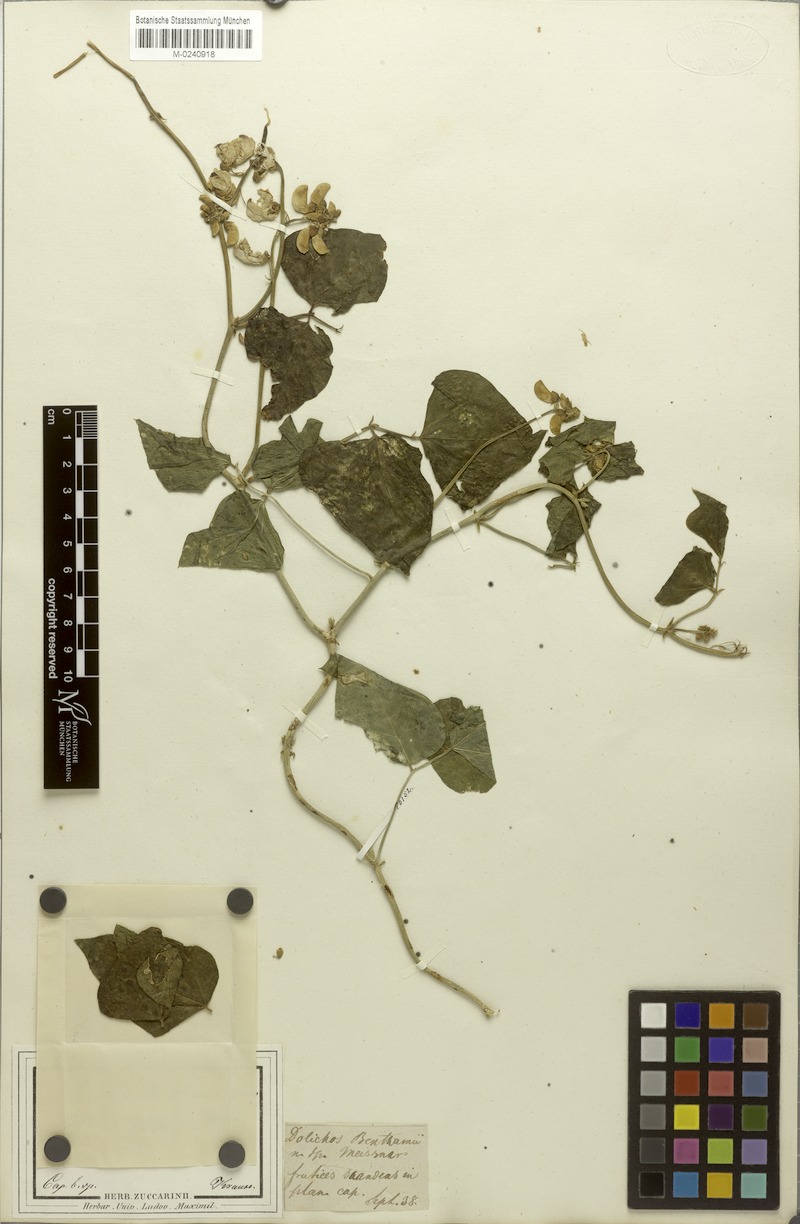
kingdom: Plantae
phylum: Tracheophyta
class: Magnoliopsida
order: Fabales
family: Fabaceae
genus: Dipogon
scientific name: Dipogon lignosus
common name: Okie bean
